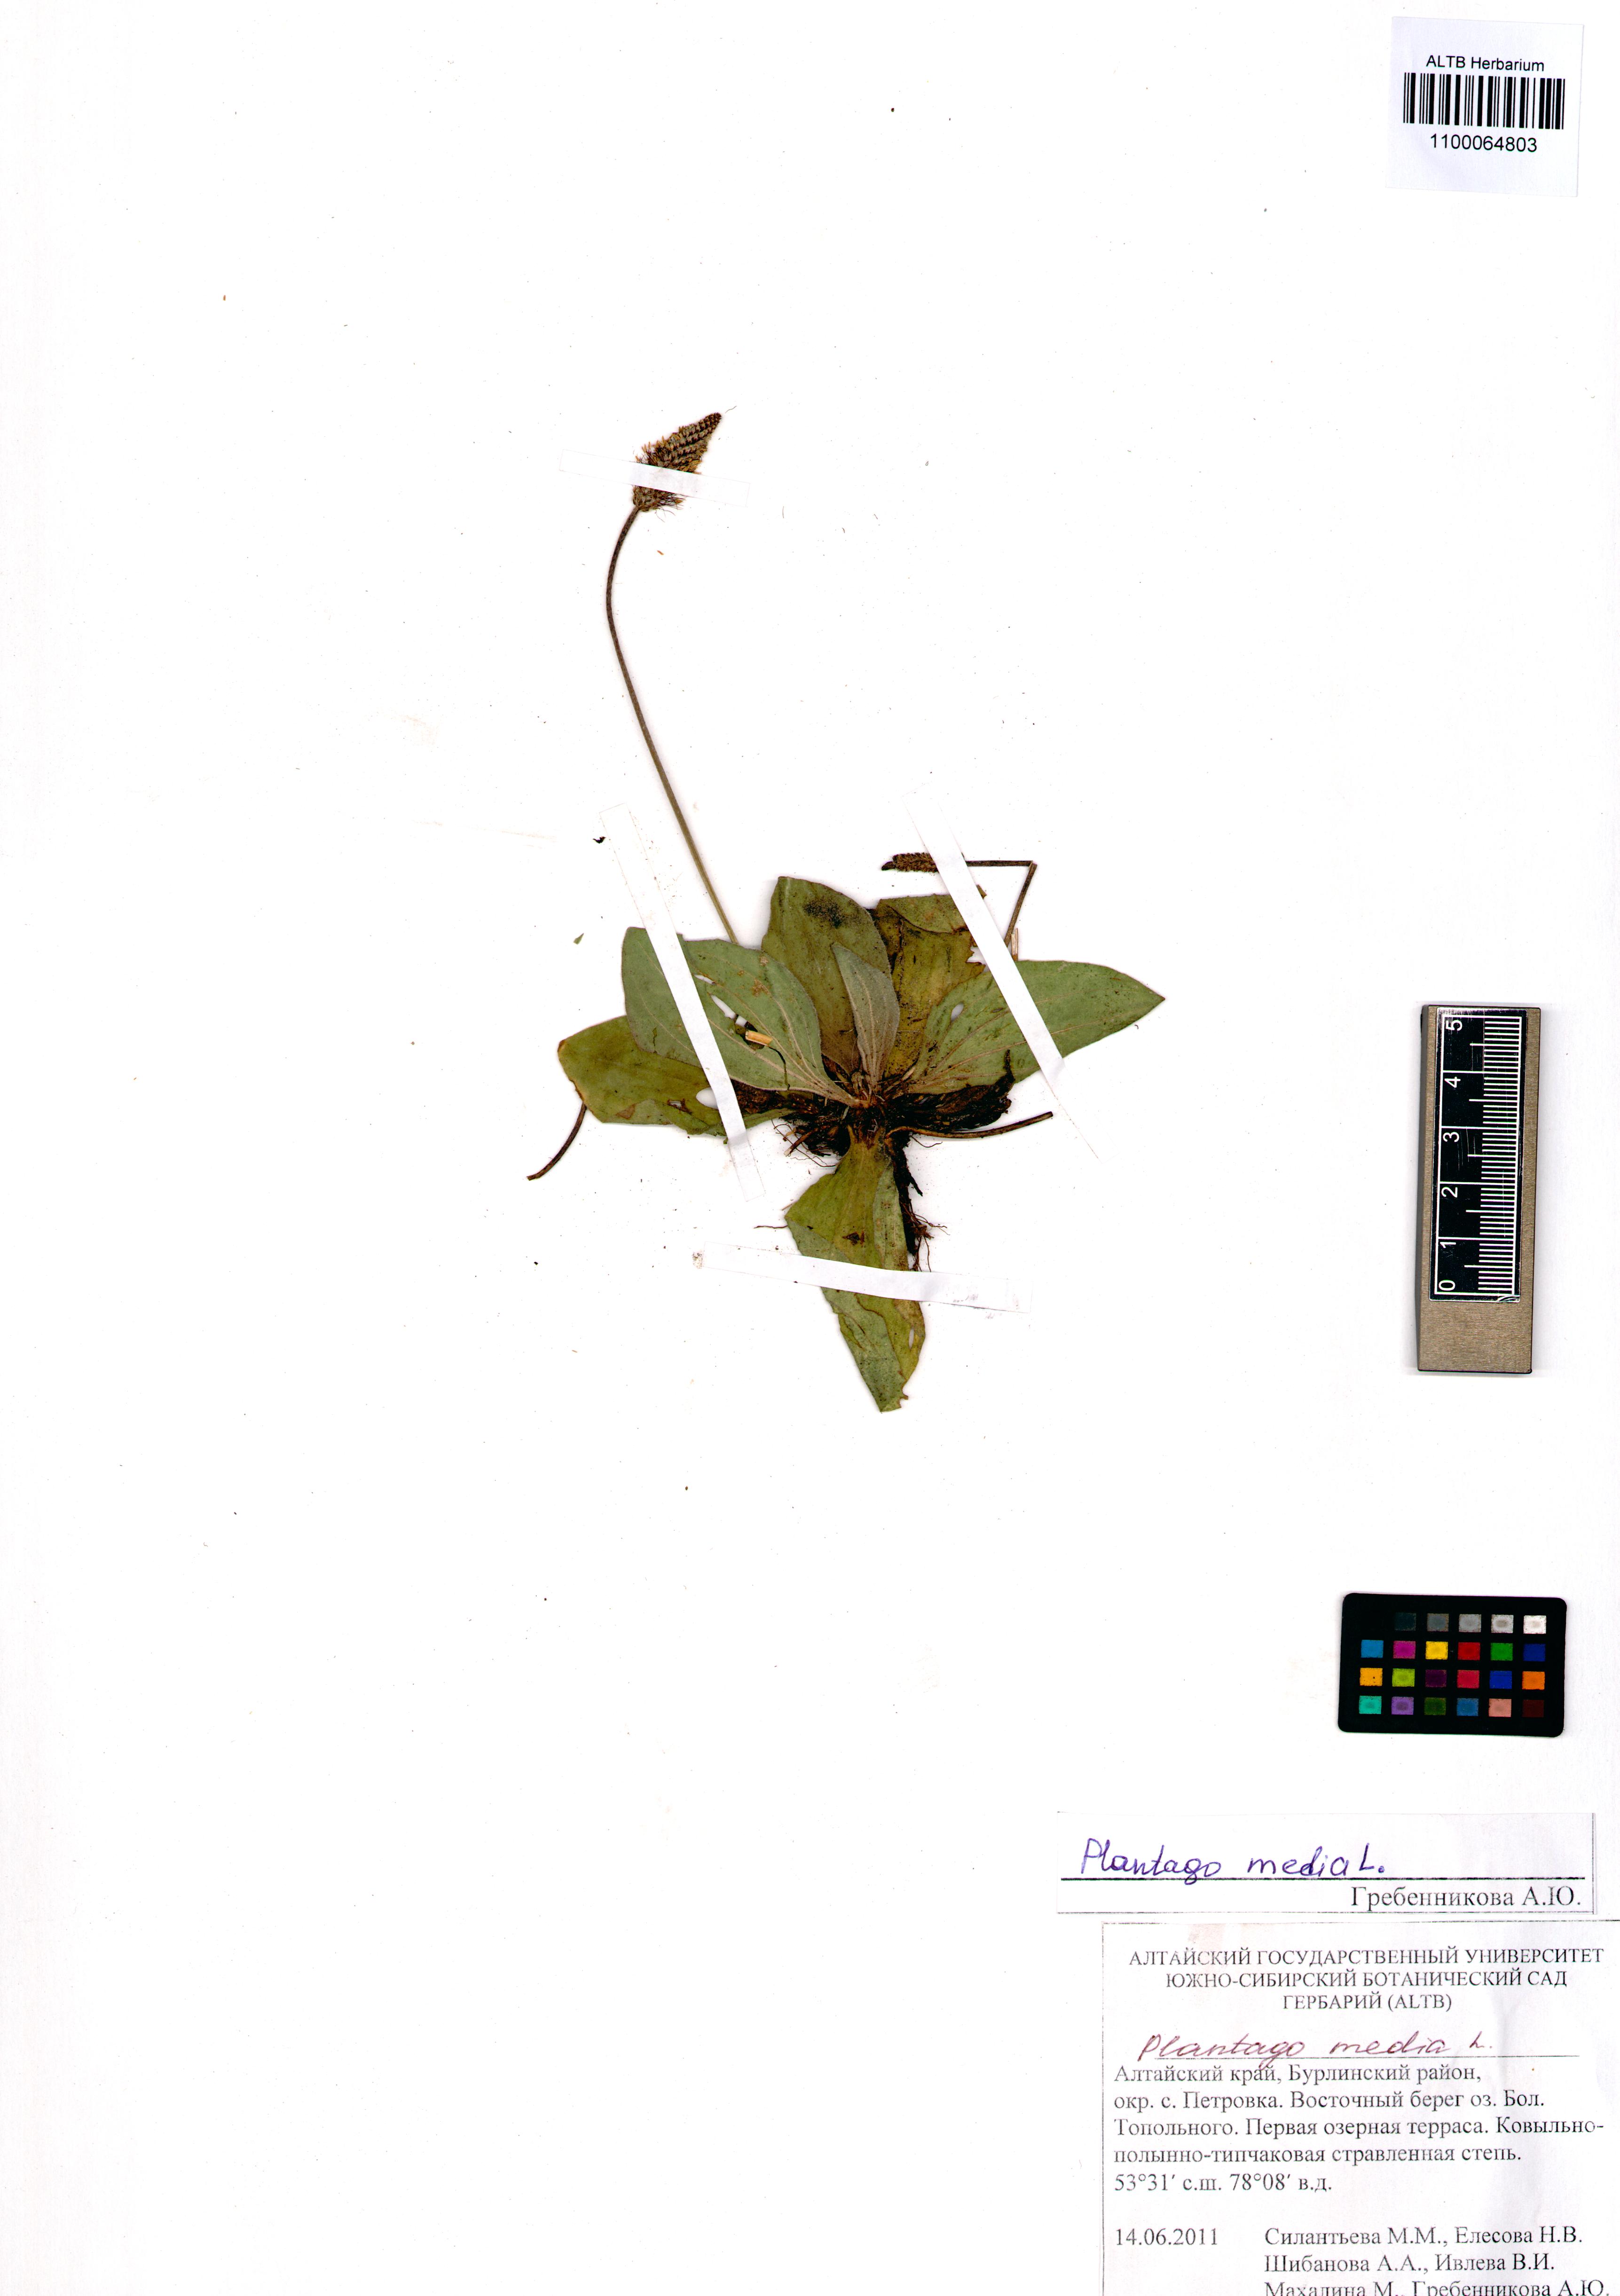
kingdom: Plantae
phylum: Tracheophyta
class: Magnoliopsida
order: Lamiales
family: Plantaginaceae
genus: Plantago
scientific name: Plantago media
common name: Hoary plantain
